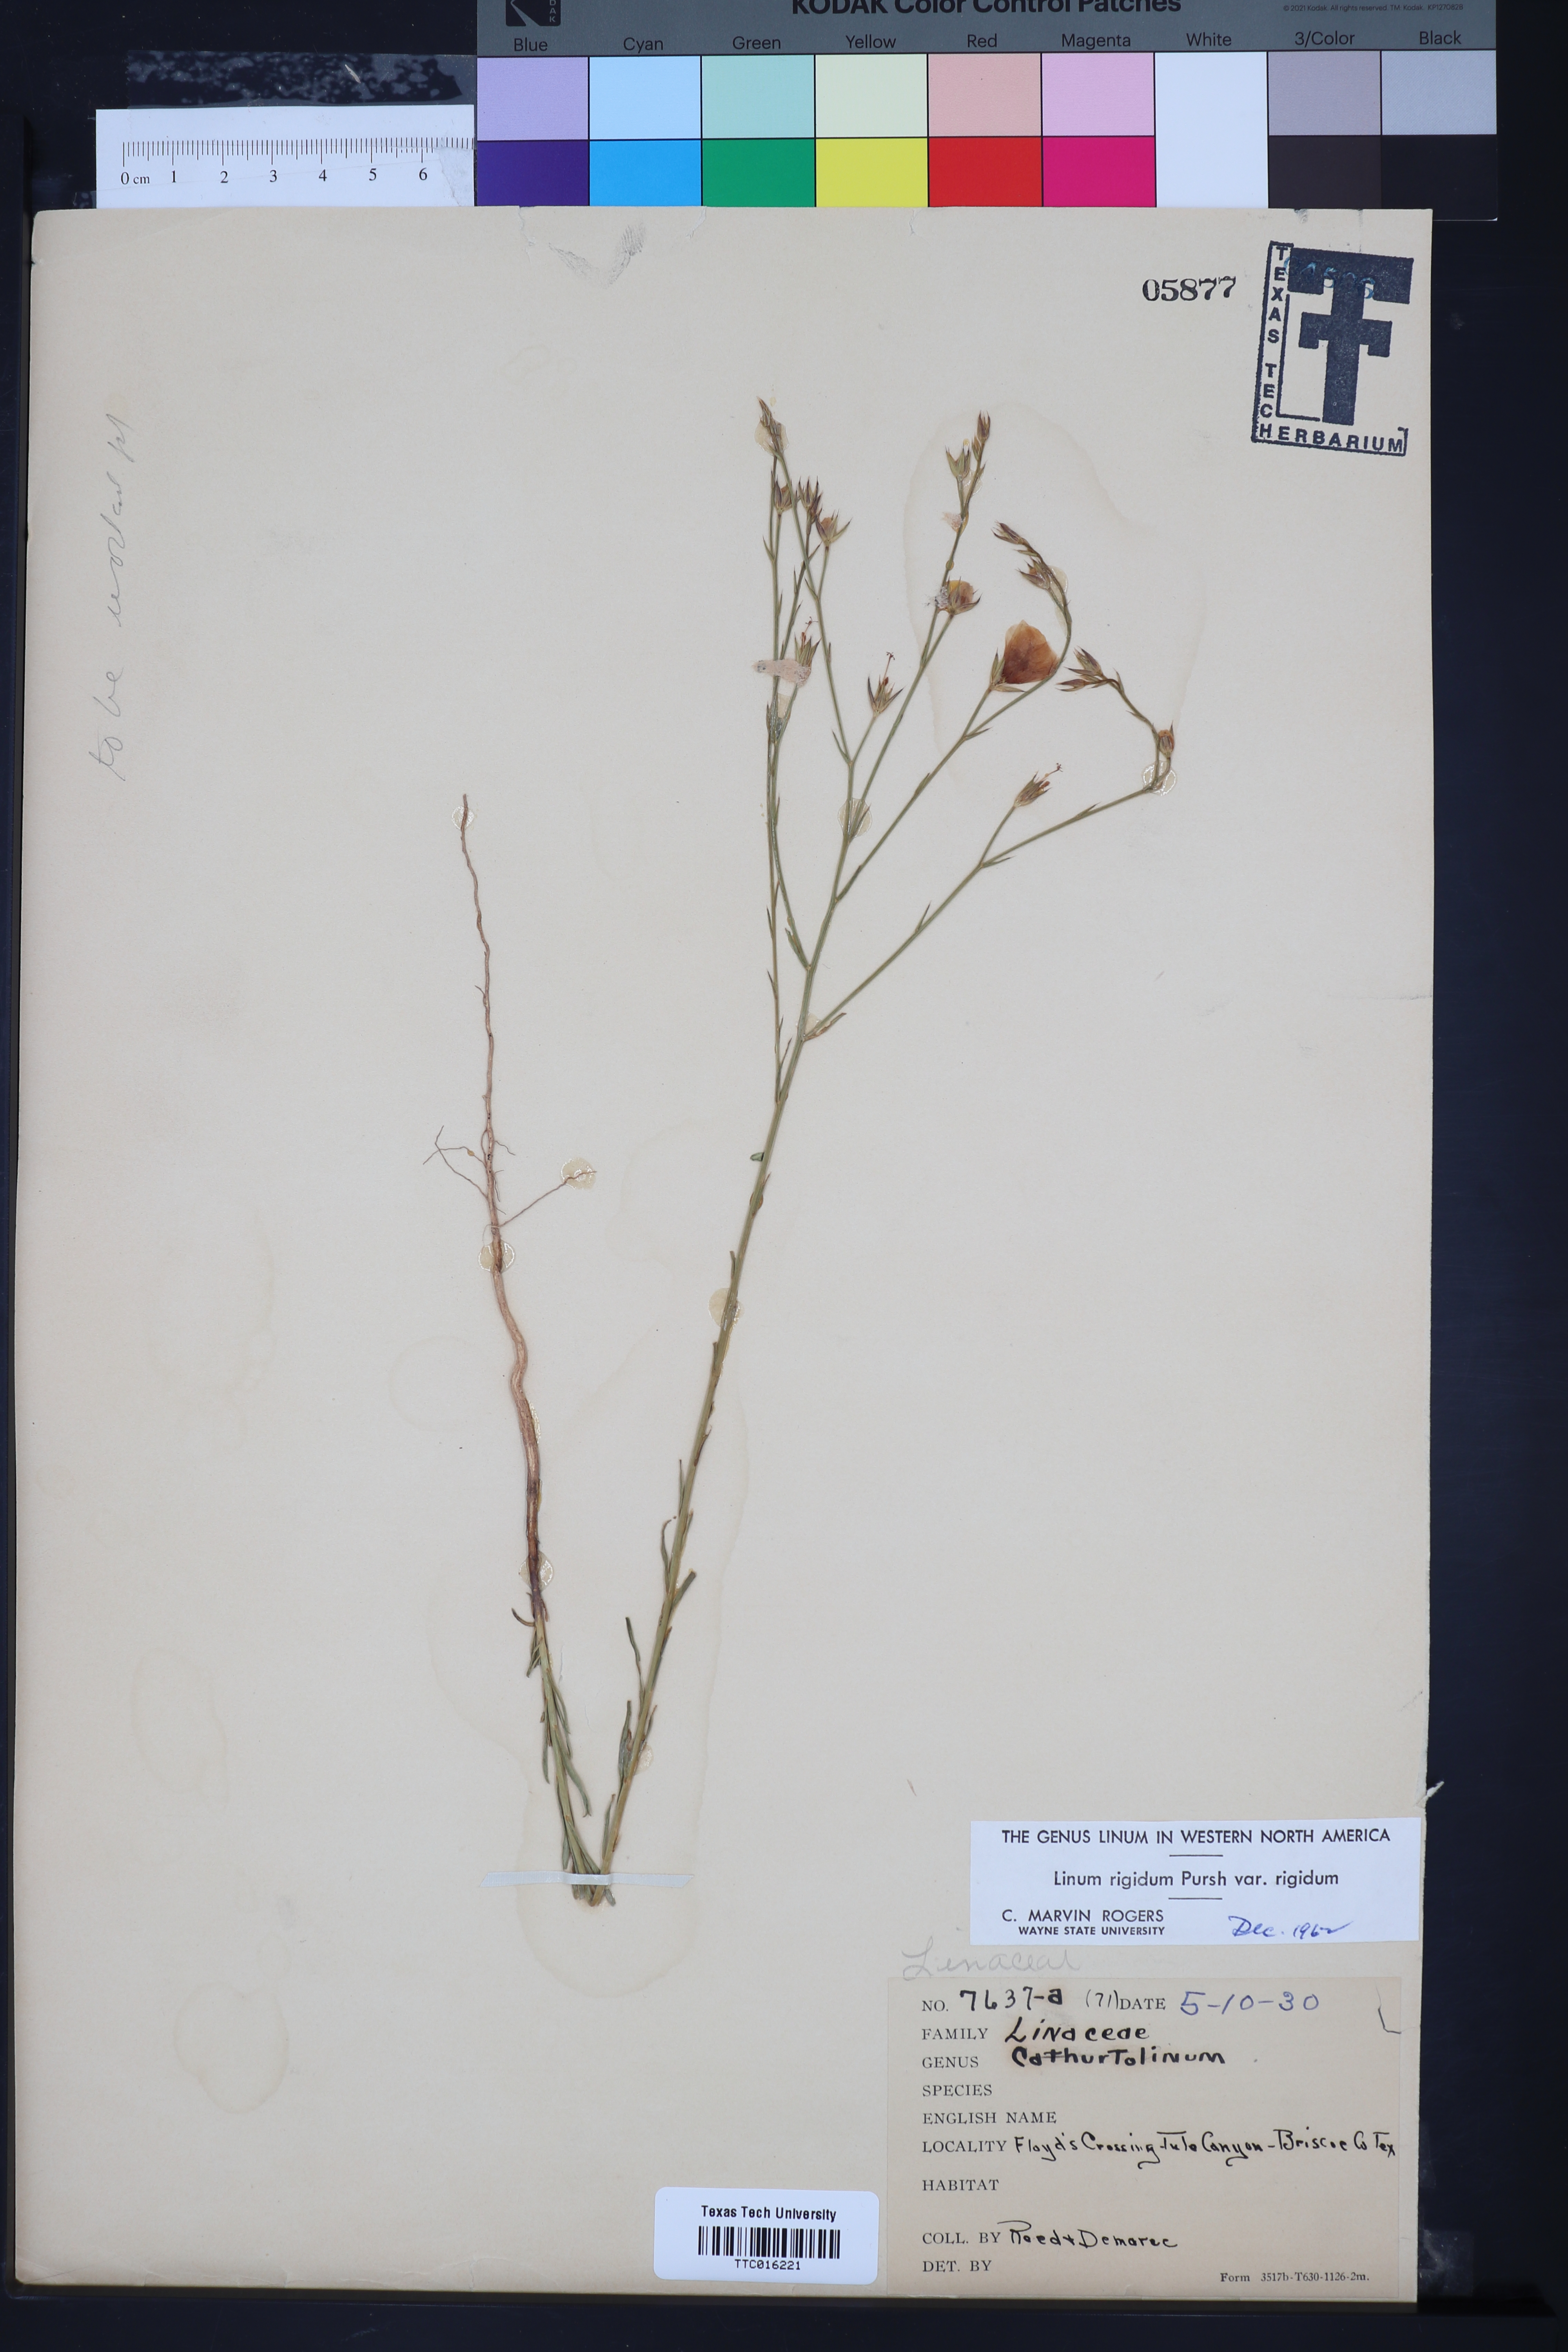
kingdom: Plantae
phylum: Tracheophyta
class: Magnoliopsida
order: Malpighiales
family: Linaceae
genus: Linum
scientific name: Linum rigidum
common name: Stiff-stem flax
